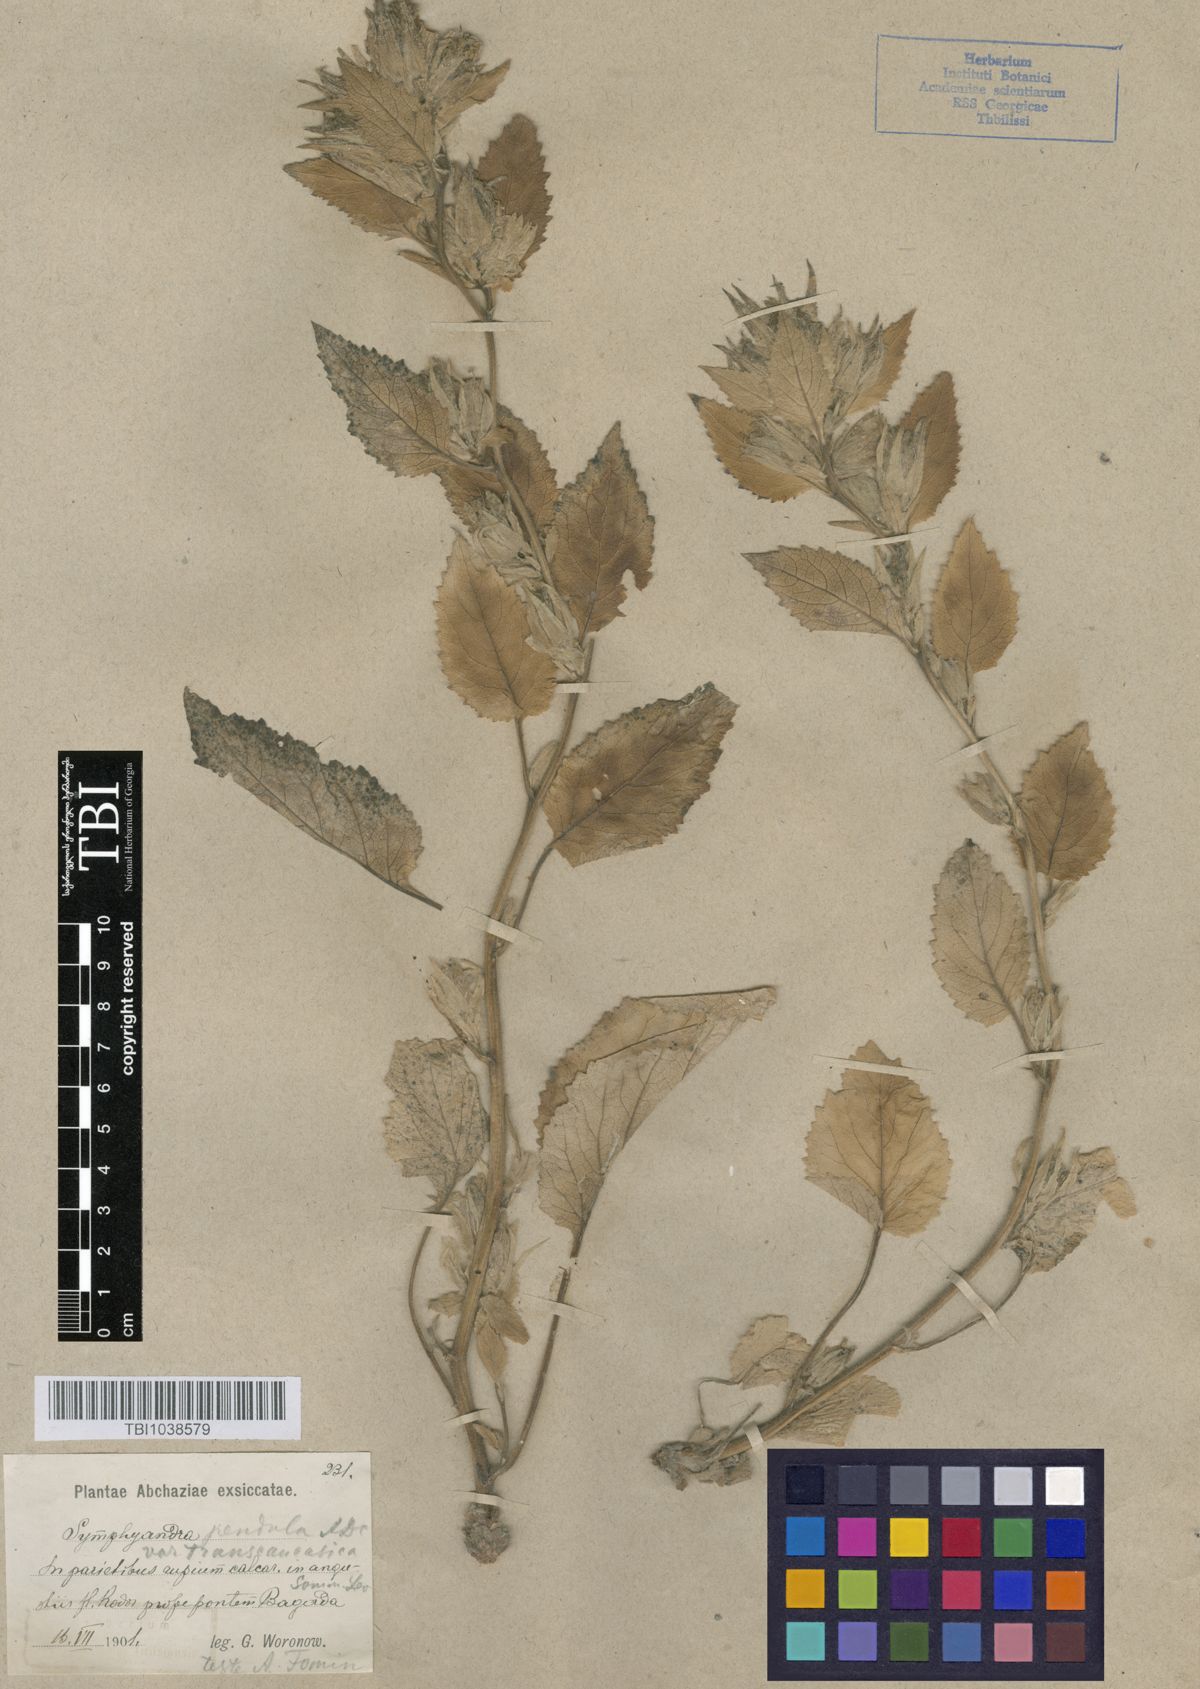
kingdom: Plantae
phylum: Tracheophyta
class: Magnoliopsida
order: Asterales
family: Campanulaceae
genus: Campanula
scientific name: Campanula pendula
